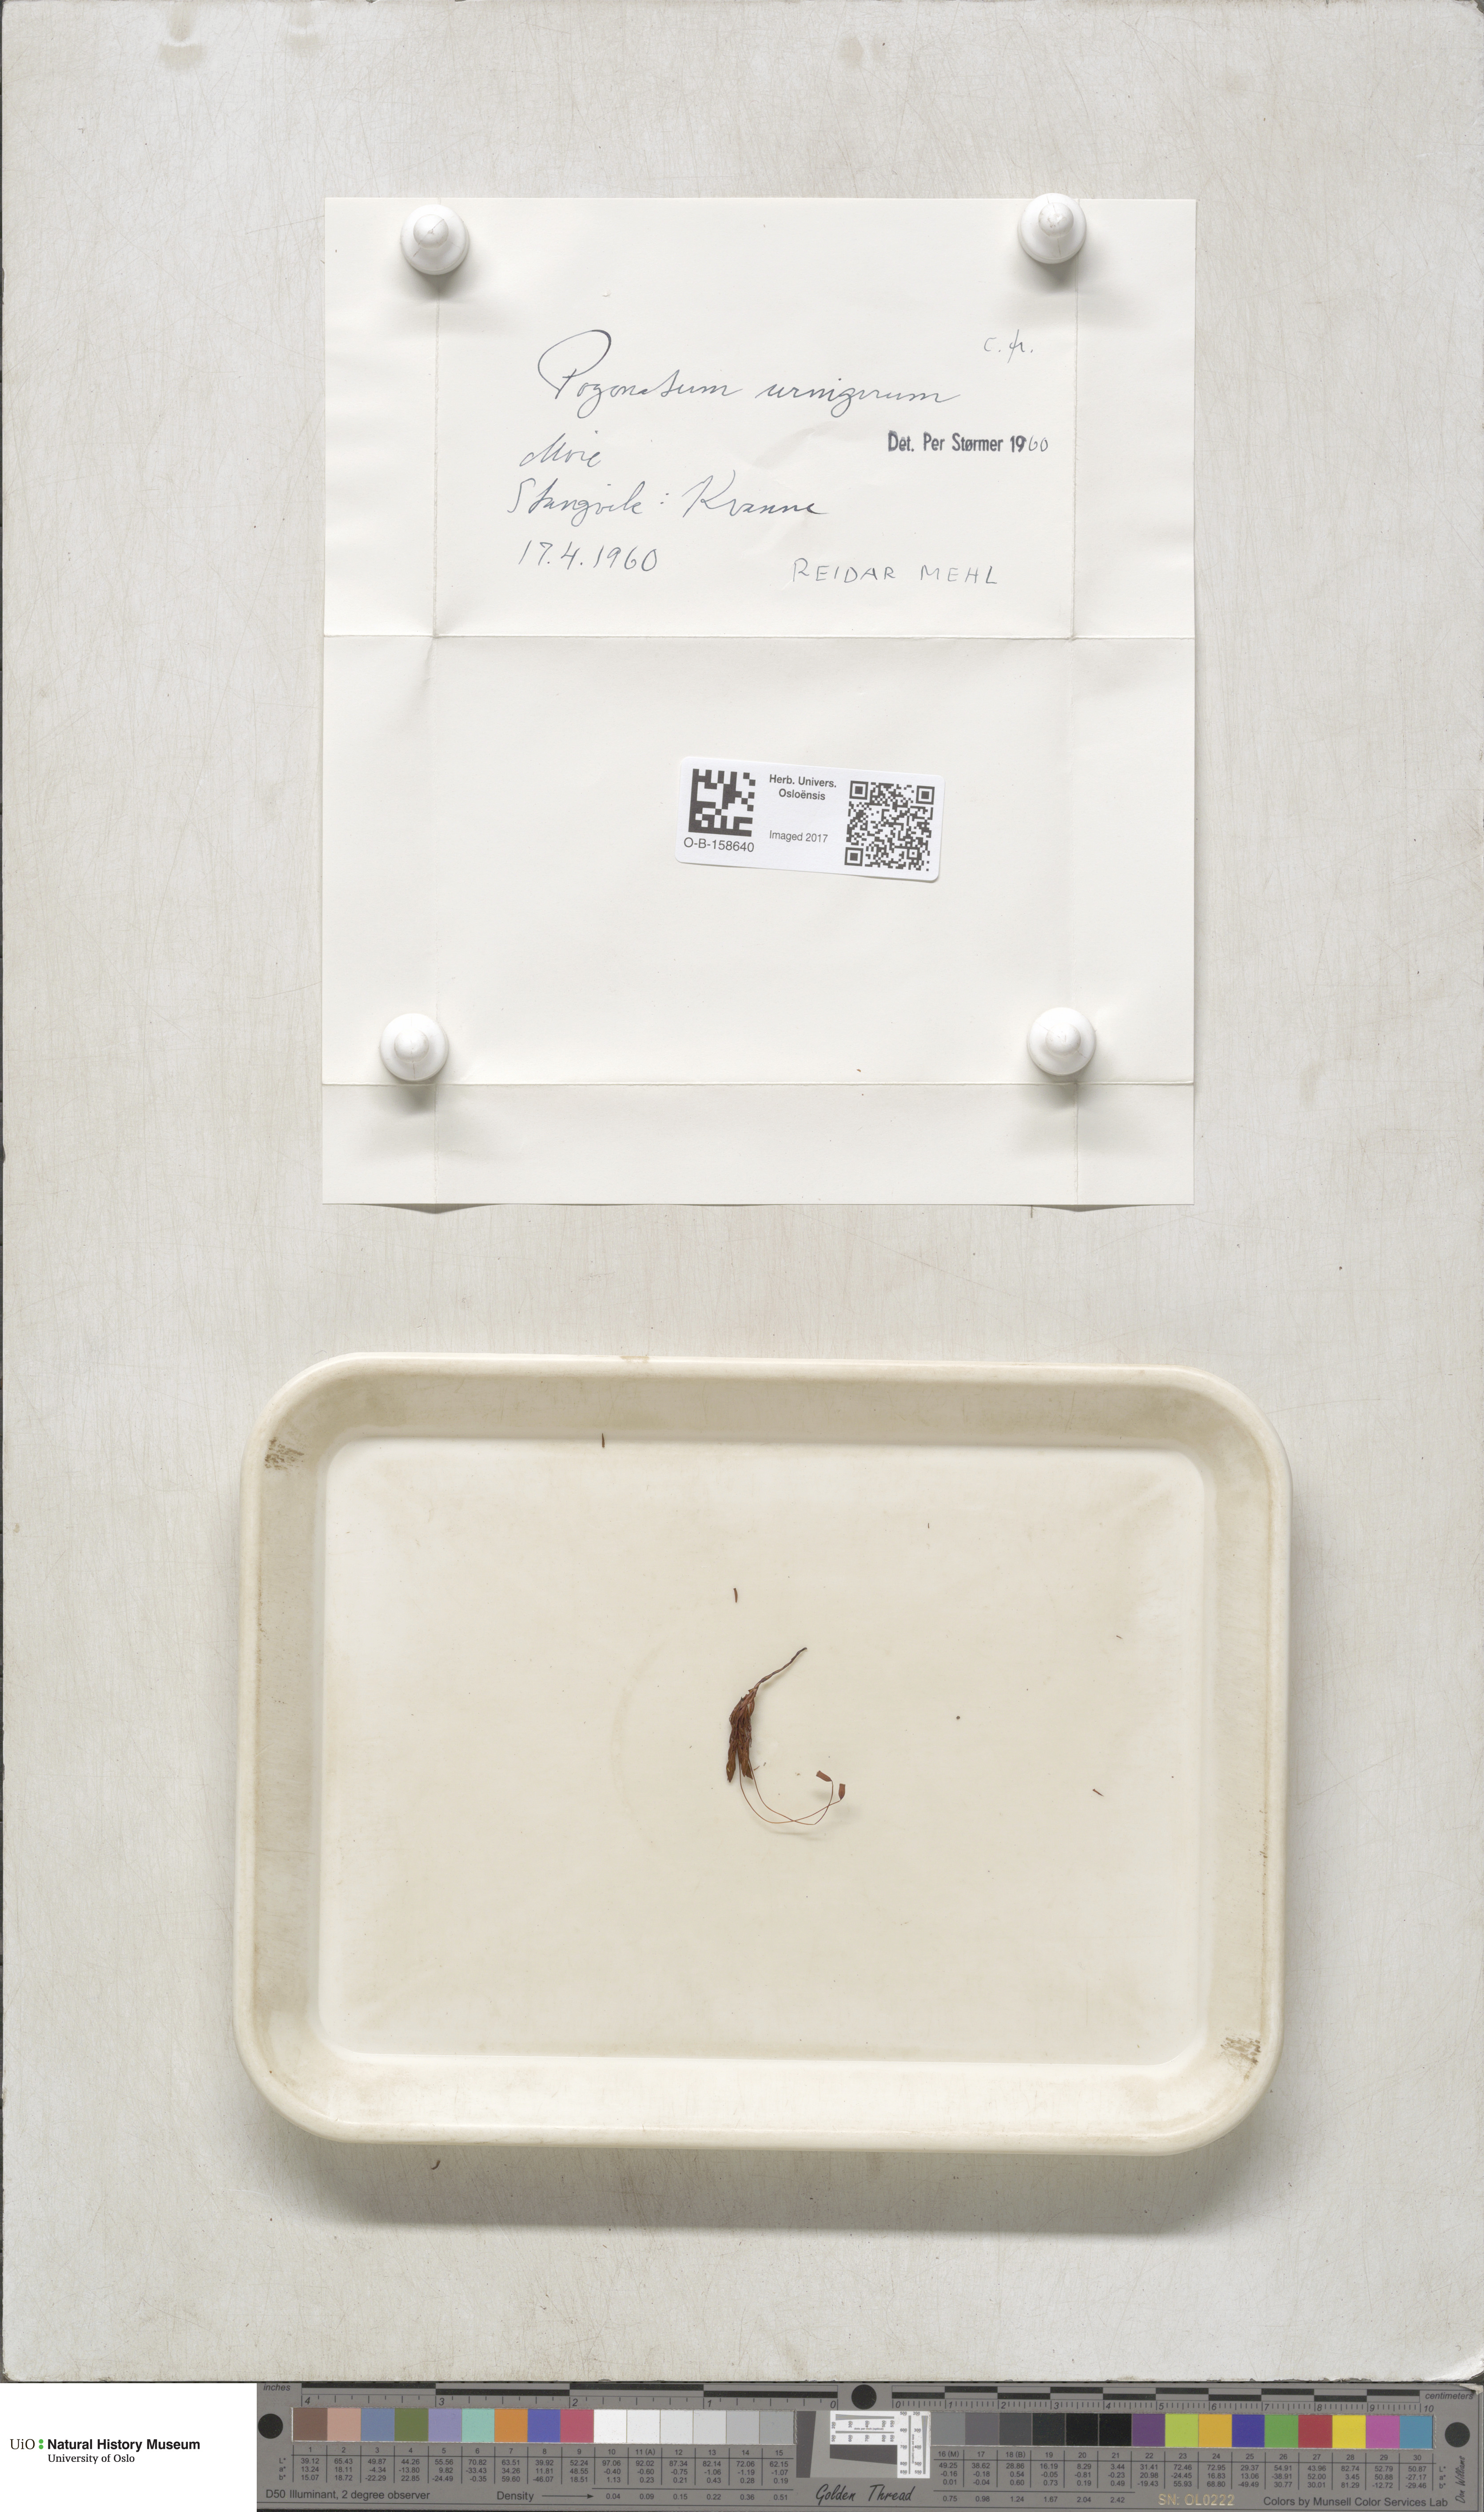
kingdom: Plantae
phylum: Bryophyta
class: Polytrichopsida
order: Polytrichales
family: Polytrichaceae
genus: Pogonatum
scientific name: Pogonatum urnigerum
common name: Urn hair moss
